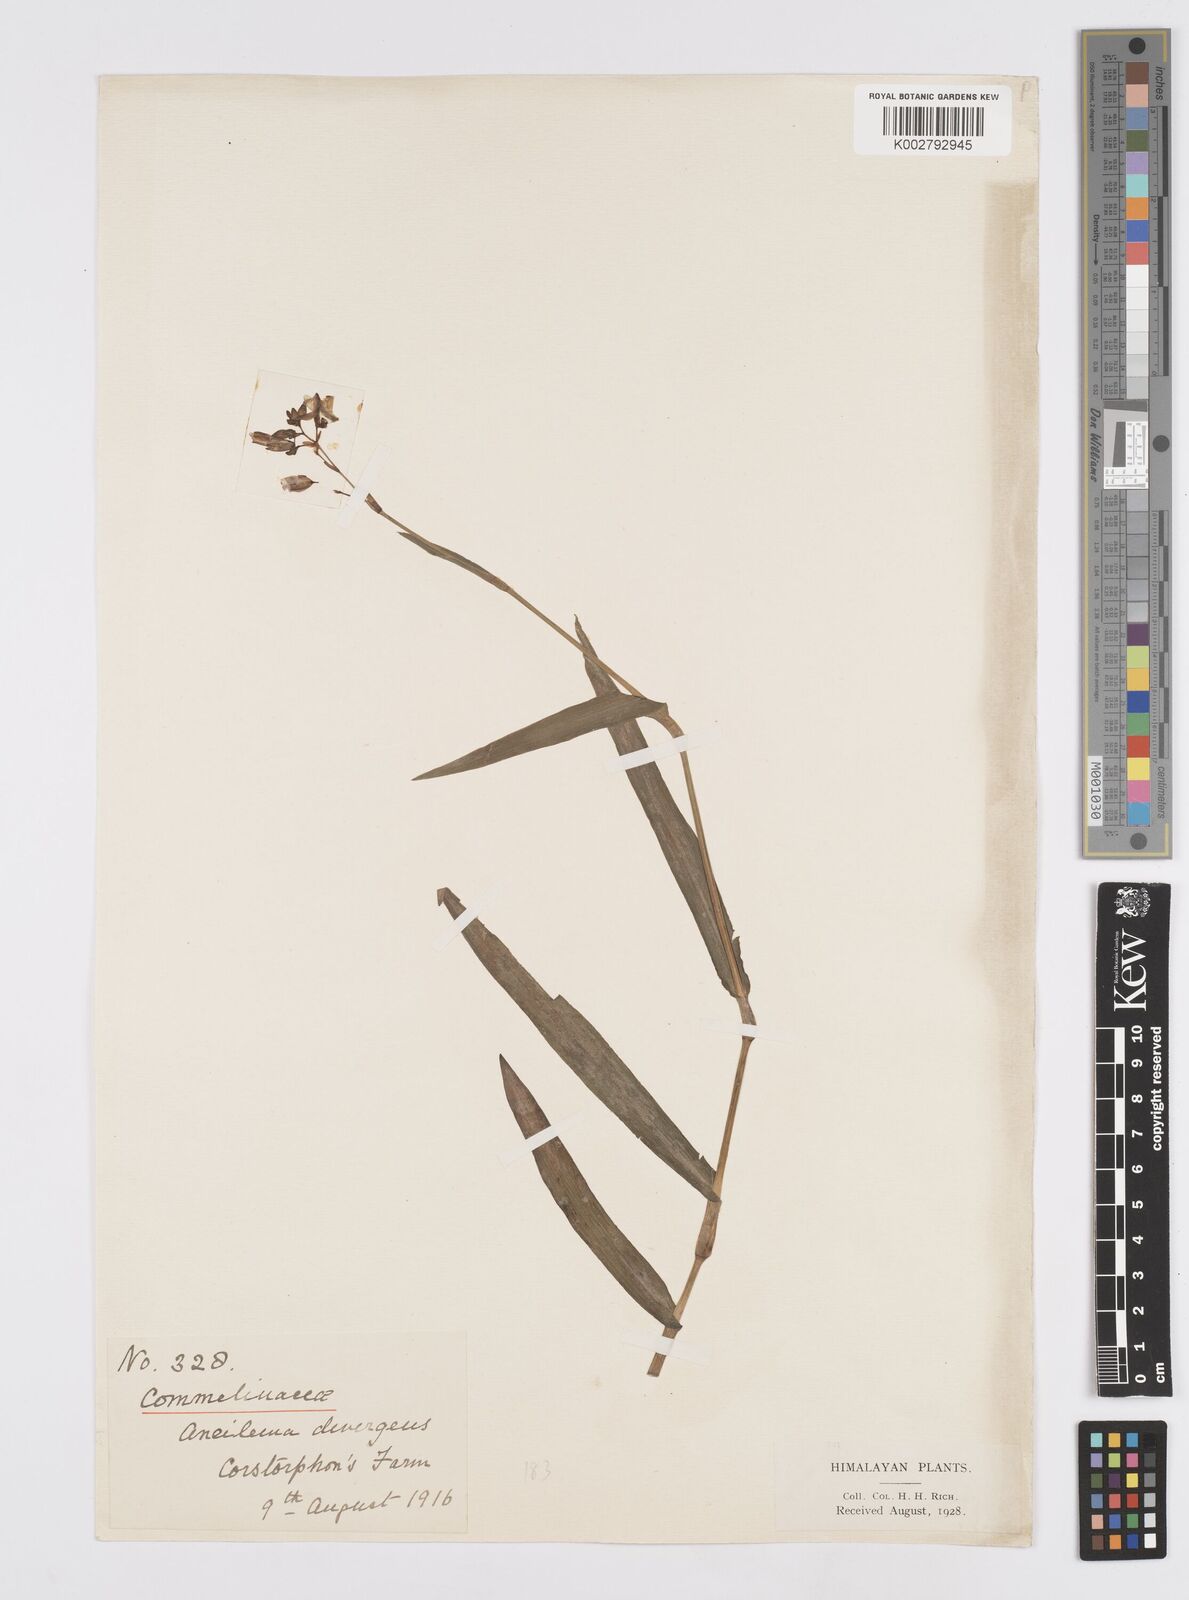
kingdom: Plantae
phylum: Tracheophyta
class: Liliopsida
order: Commelinales
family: Commelinaceae
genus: Murdannia
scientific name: Murdannia divergens
